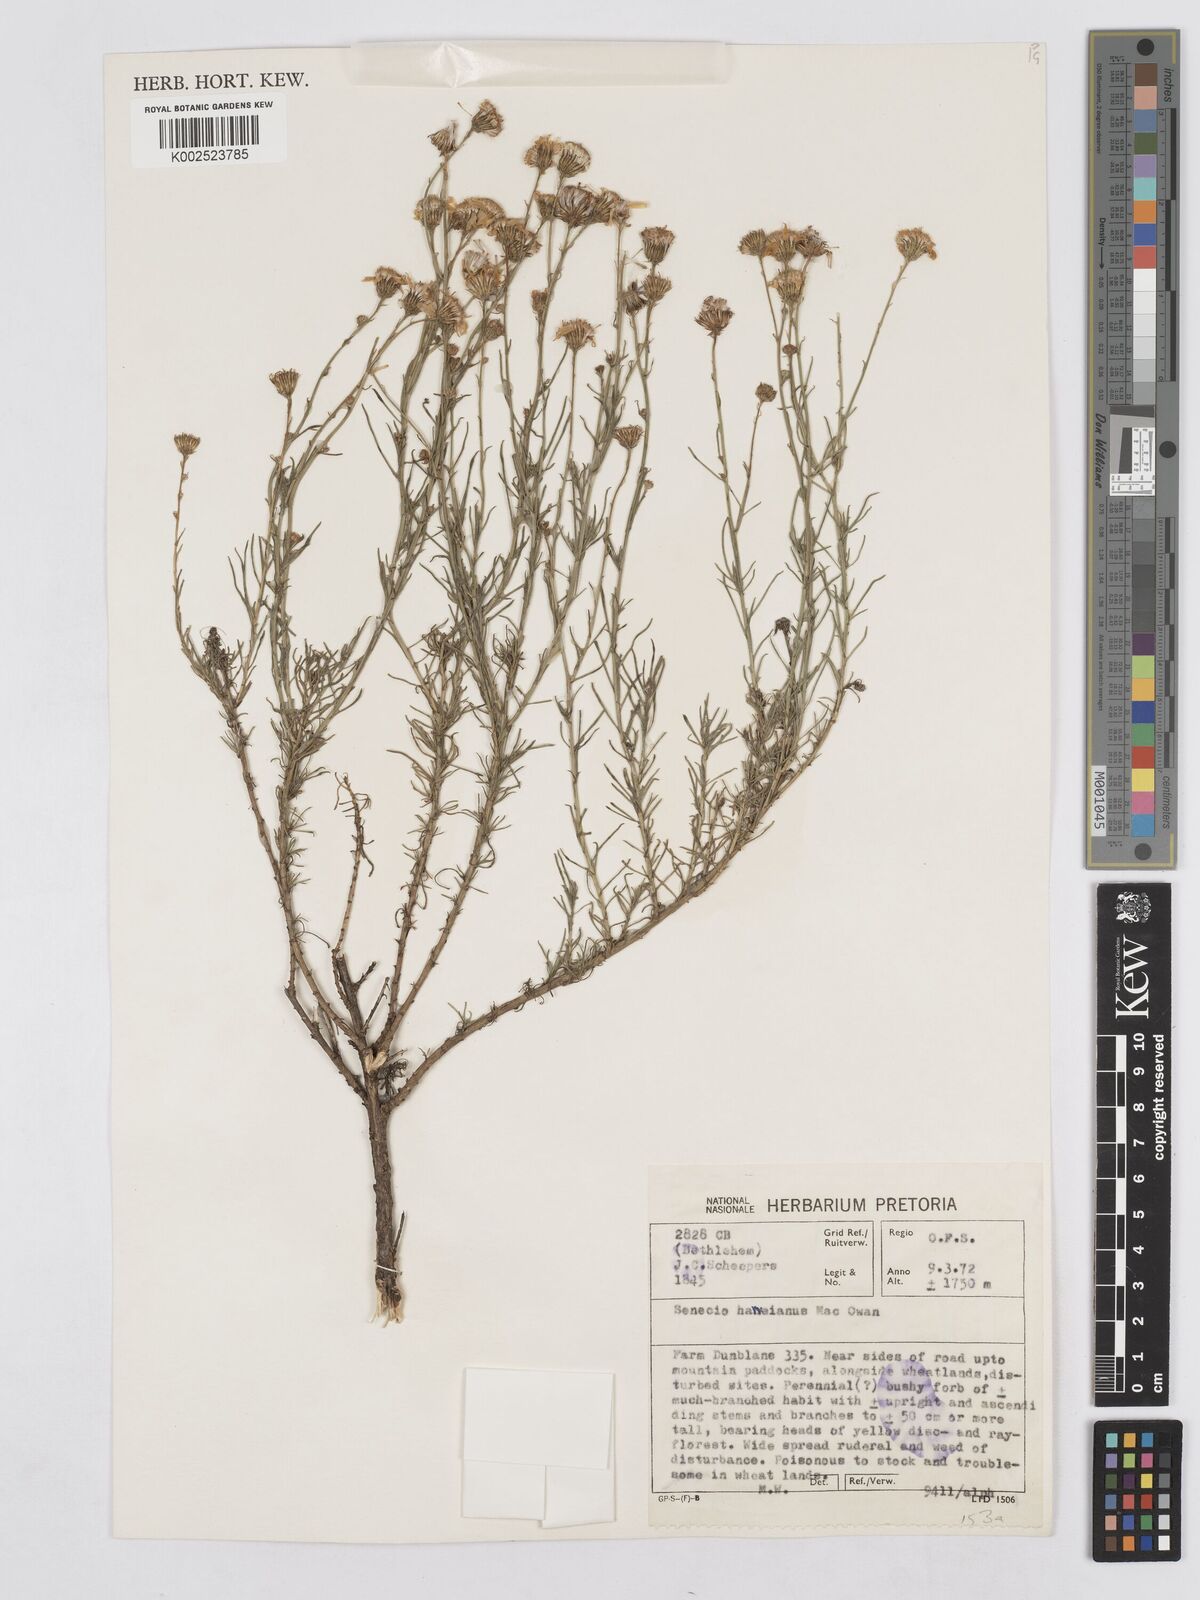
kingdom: Plantae
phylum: Tracheophyta
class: Magnoliopsida
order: Asterales
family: Asteraceae
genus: Senecio
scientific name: Senecio harveyanus
